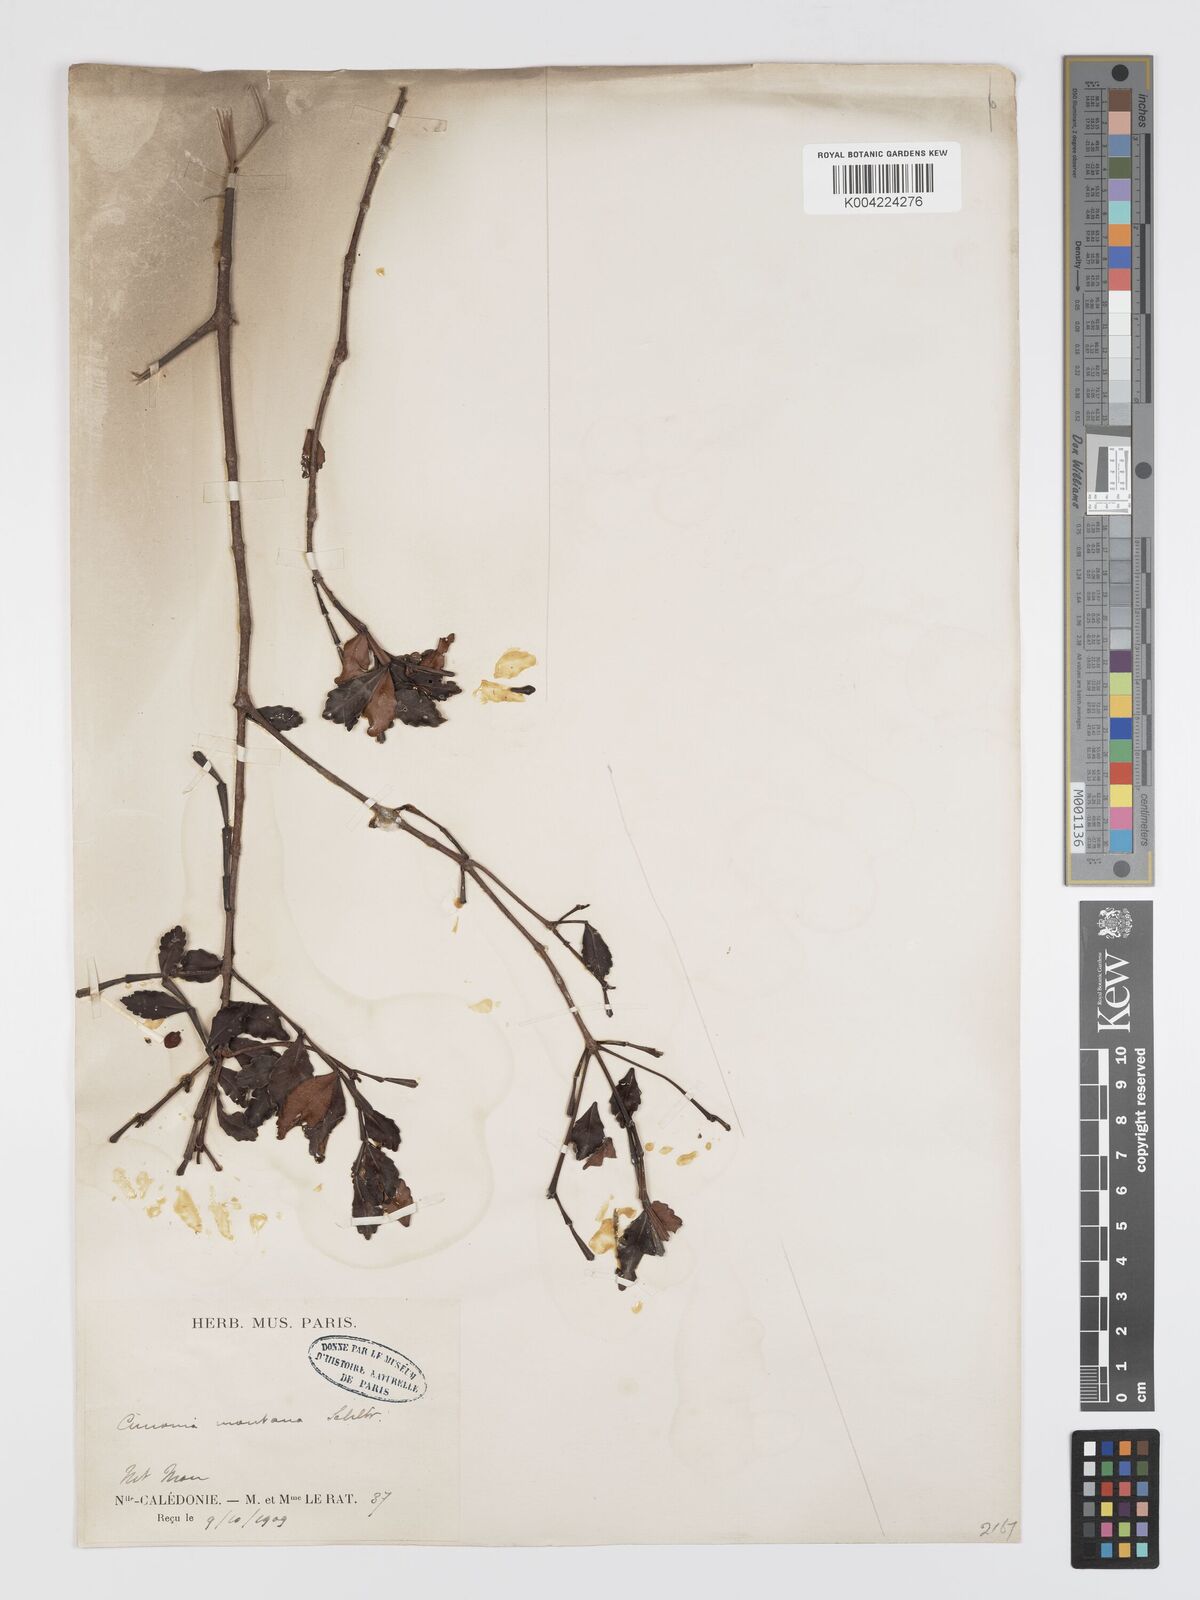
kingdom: Plantae
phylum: Tracheophyta
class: Magnoliopsida
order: Oxalidales
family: Cunoniaceae
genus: Cunonia
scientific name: Cunonia montana
